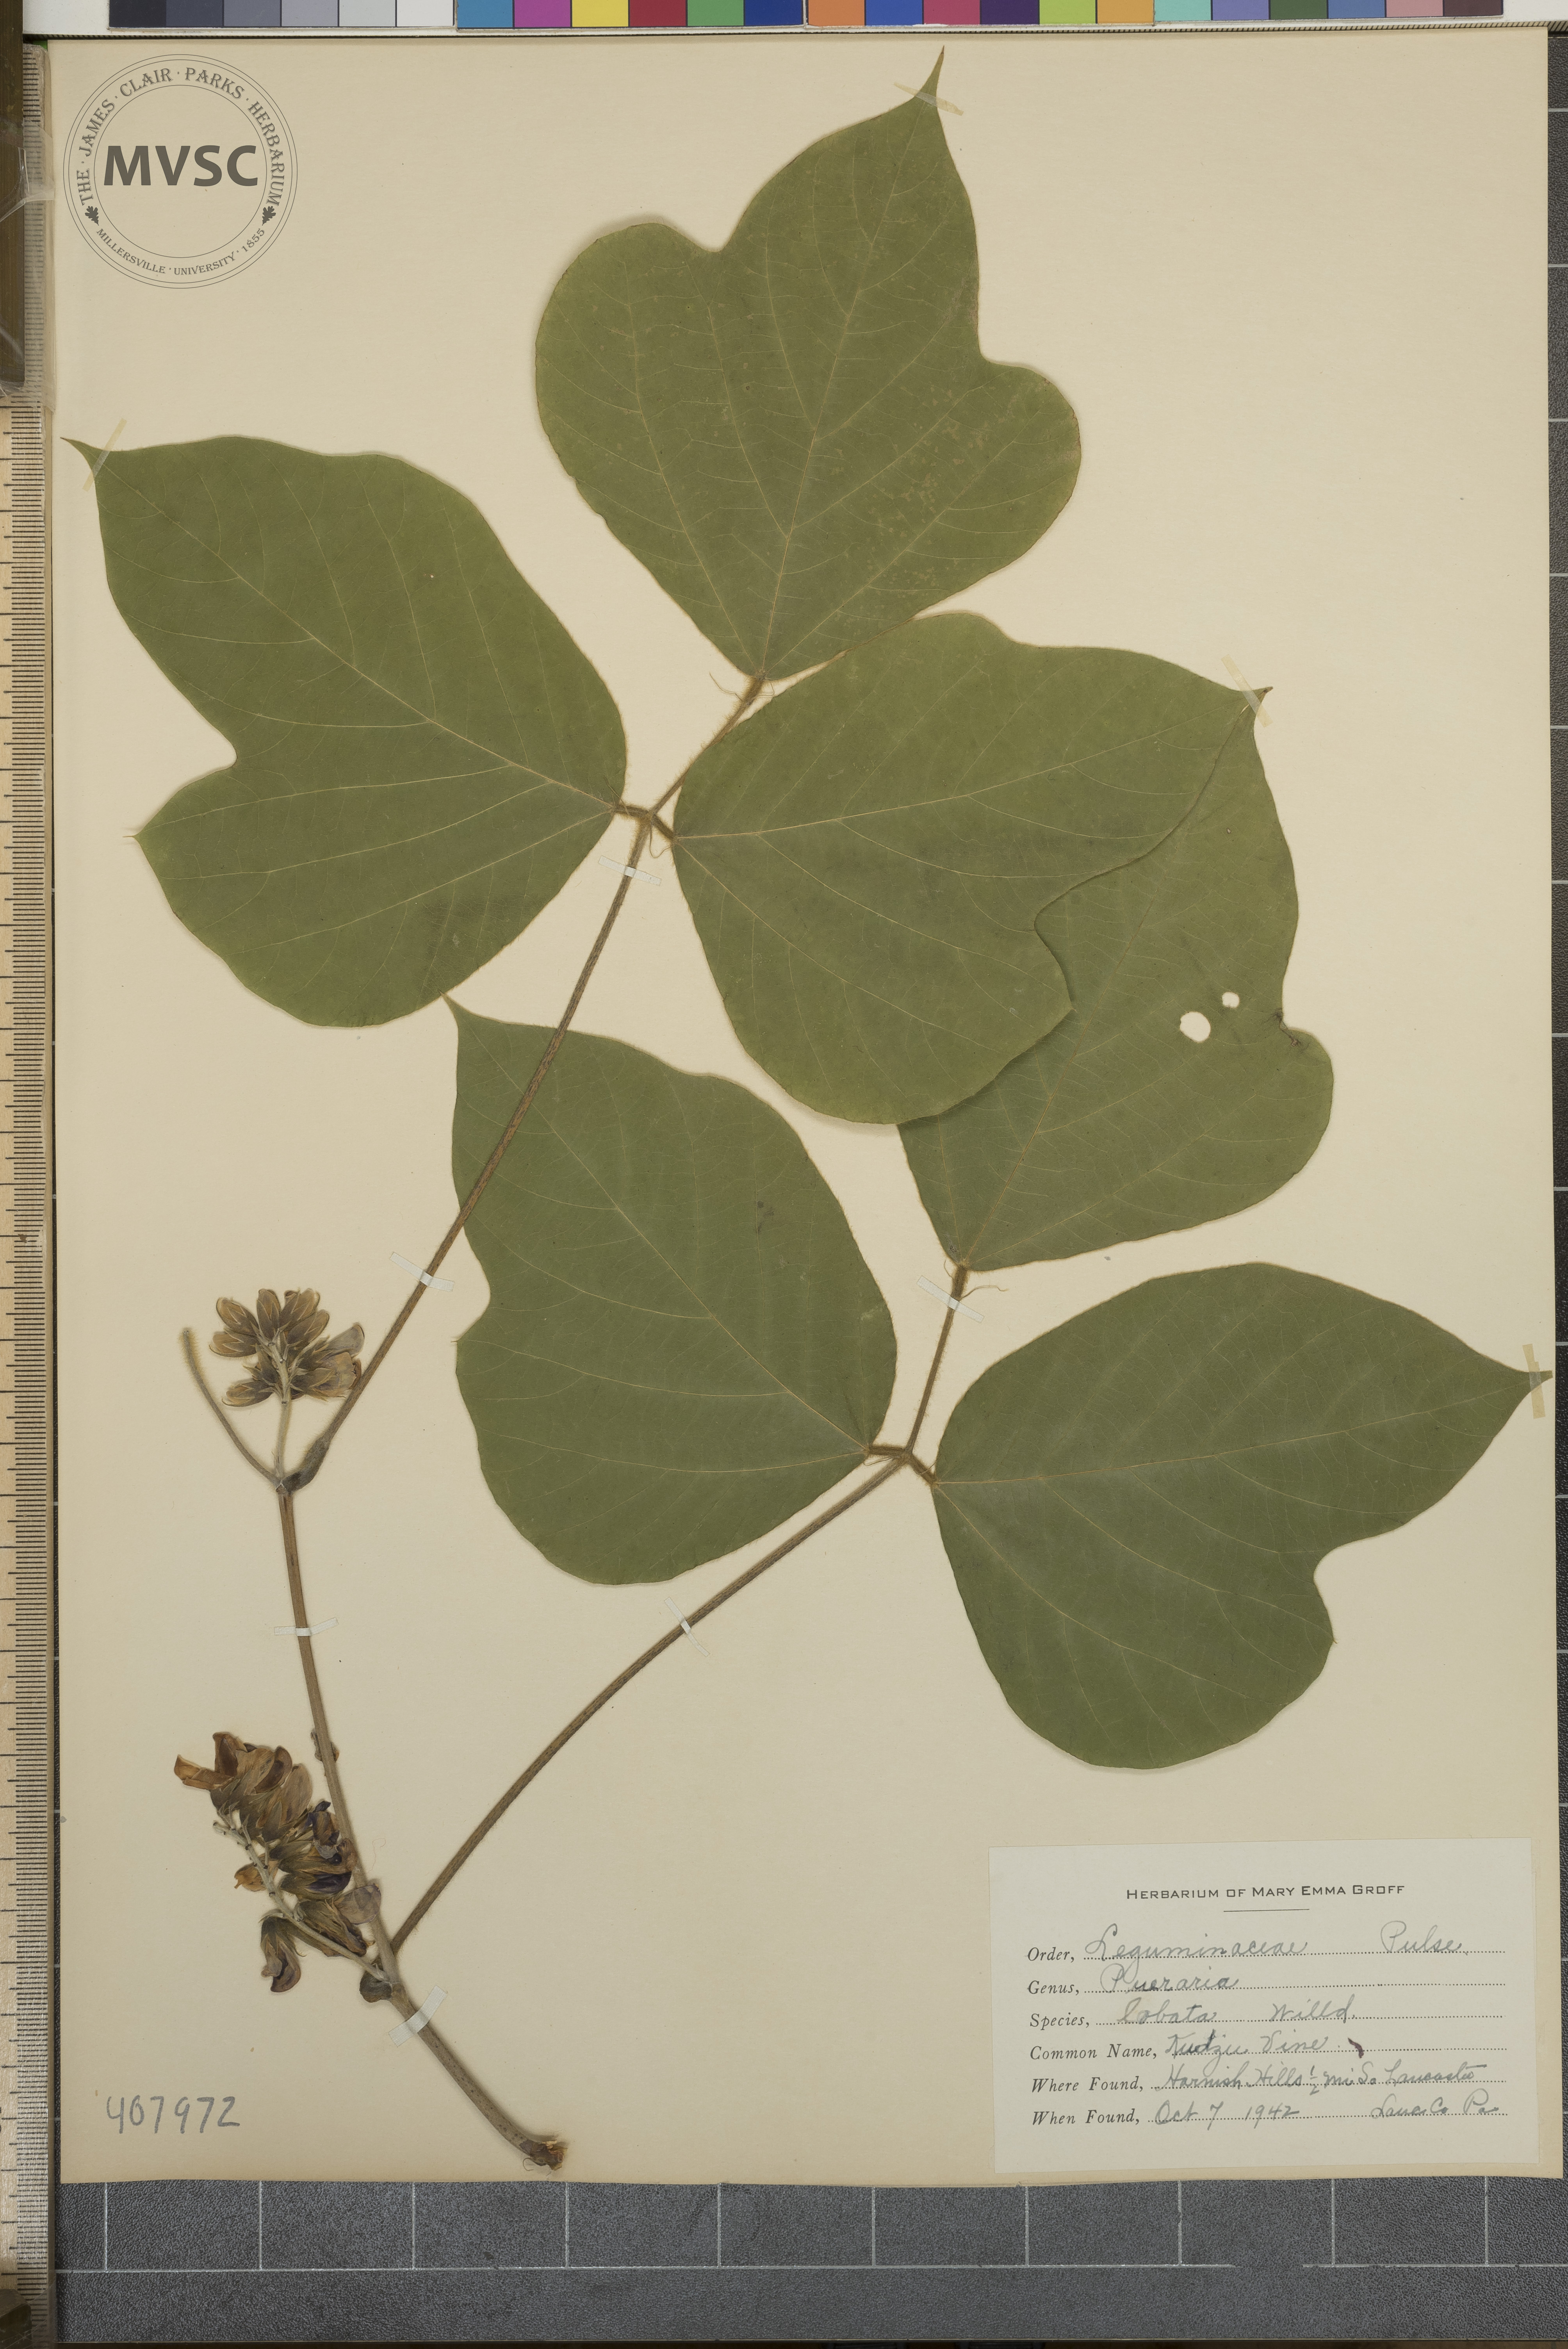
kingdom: Plantae
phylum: Tracheophyta
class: Magnoliopsida
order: Fabales
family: Fabaceae
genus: Pueraria
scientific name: Pueraria montana
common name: kudzu vine
